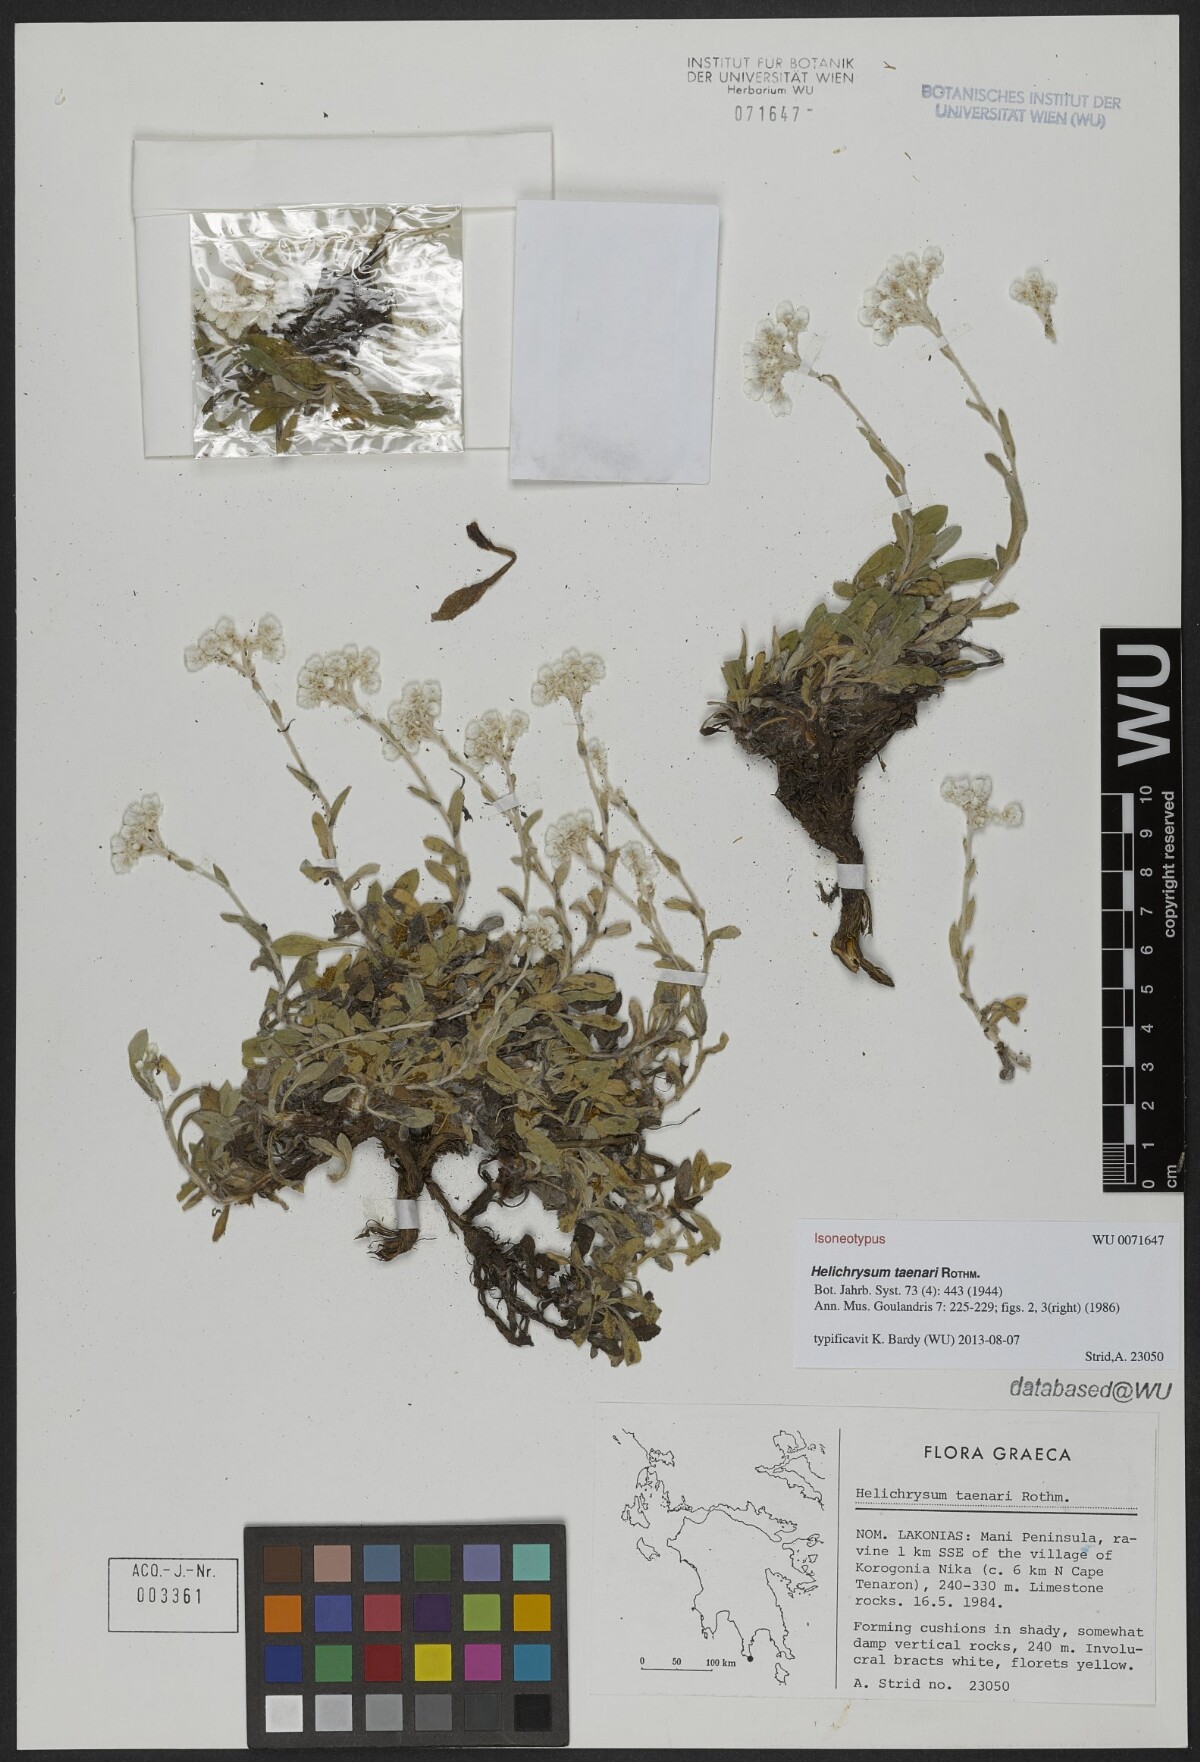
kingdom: Plantae
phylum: Tracheophyta
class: Magnoliopsida
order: Asterales
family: Asteraceae
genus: Helichrysum
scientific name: Helichrysum taenari
